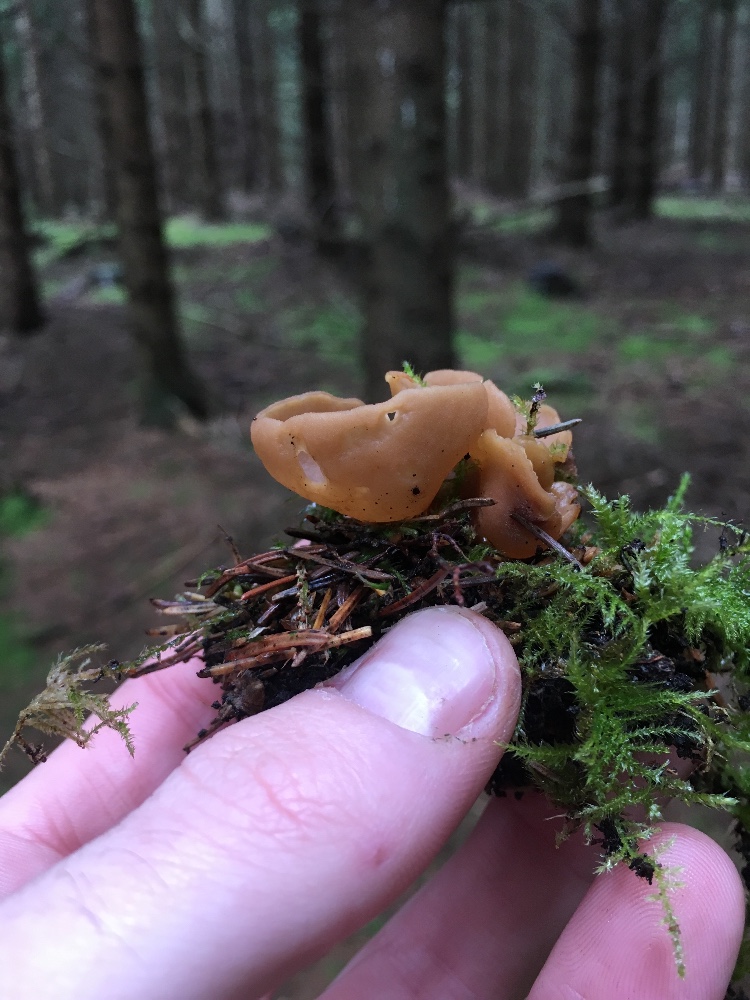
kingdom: Fungi
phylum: Ascomycota
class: Pezizomycetes
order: Pezizales
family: Otideaceae
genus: Otidea
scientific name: Otidea
